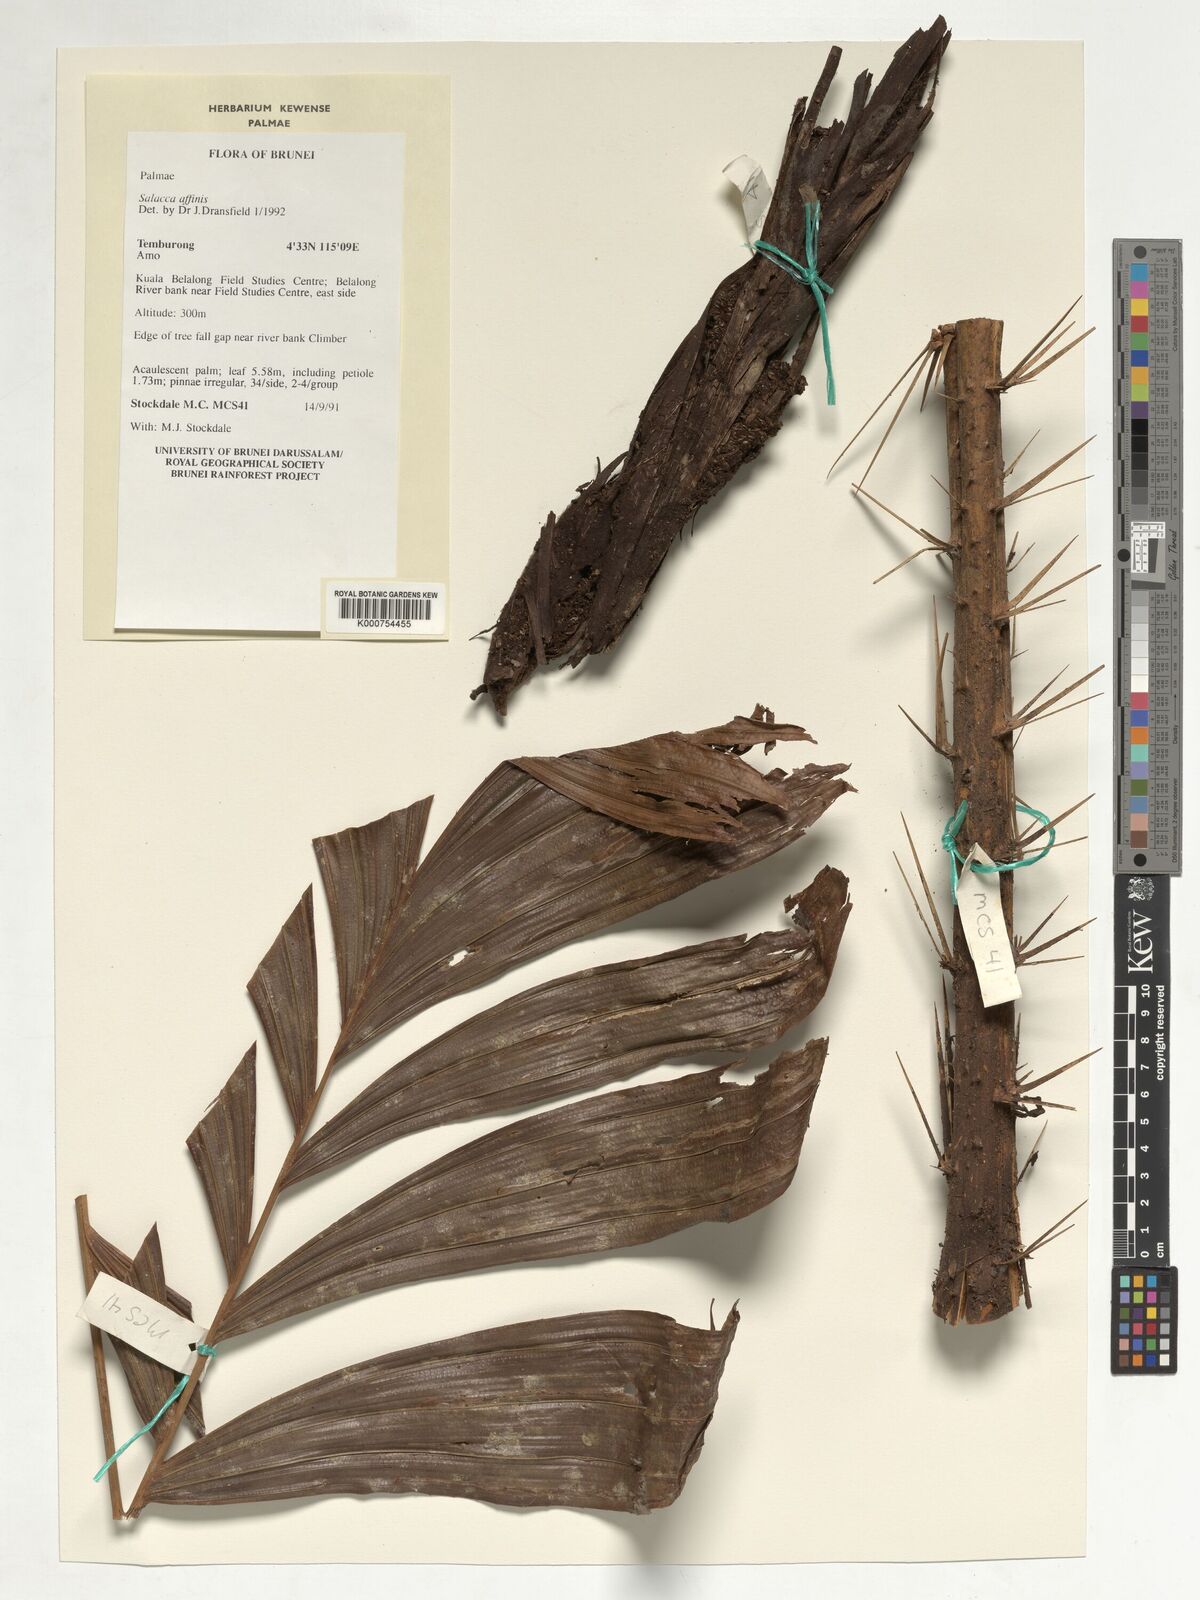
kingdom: Plantae
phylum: Tracheophyta
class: Liliopsida
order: Arecales
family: Arecaceae
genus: Salacca
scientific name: Salacca affinis
